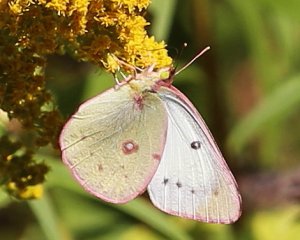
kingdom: Animalia
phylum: Arthropoda
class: Insecta
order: Lepidoptera
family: Pieridae
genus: Colias
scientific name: Colias eurytheme
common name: Orange Sulphur
